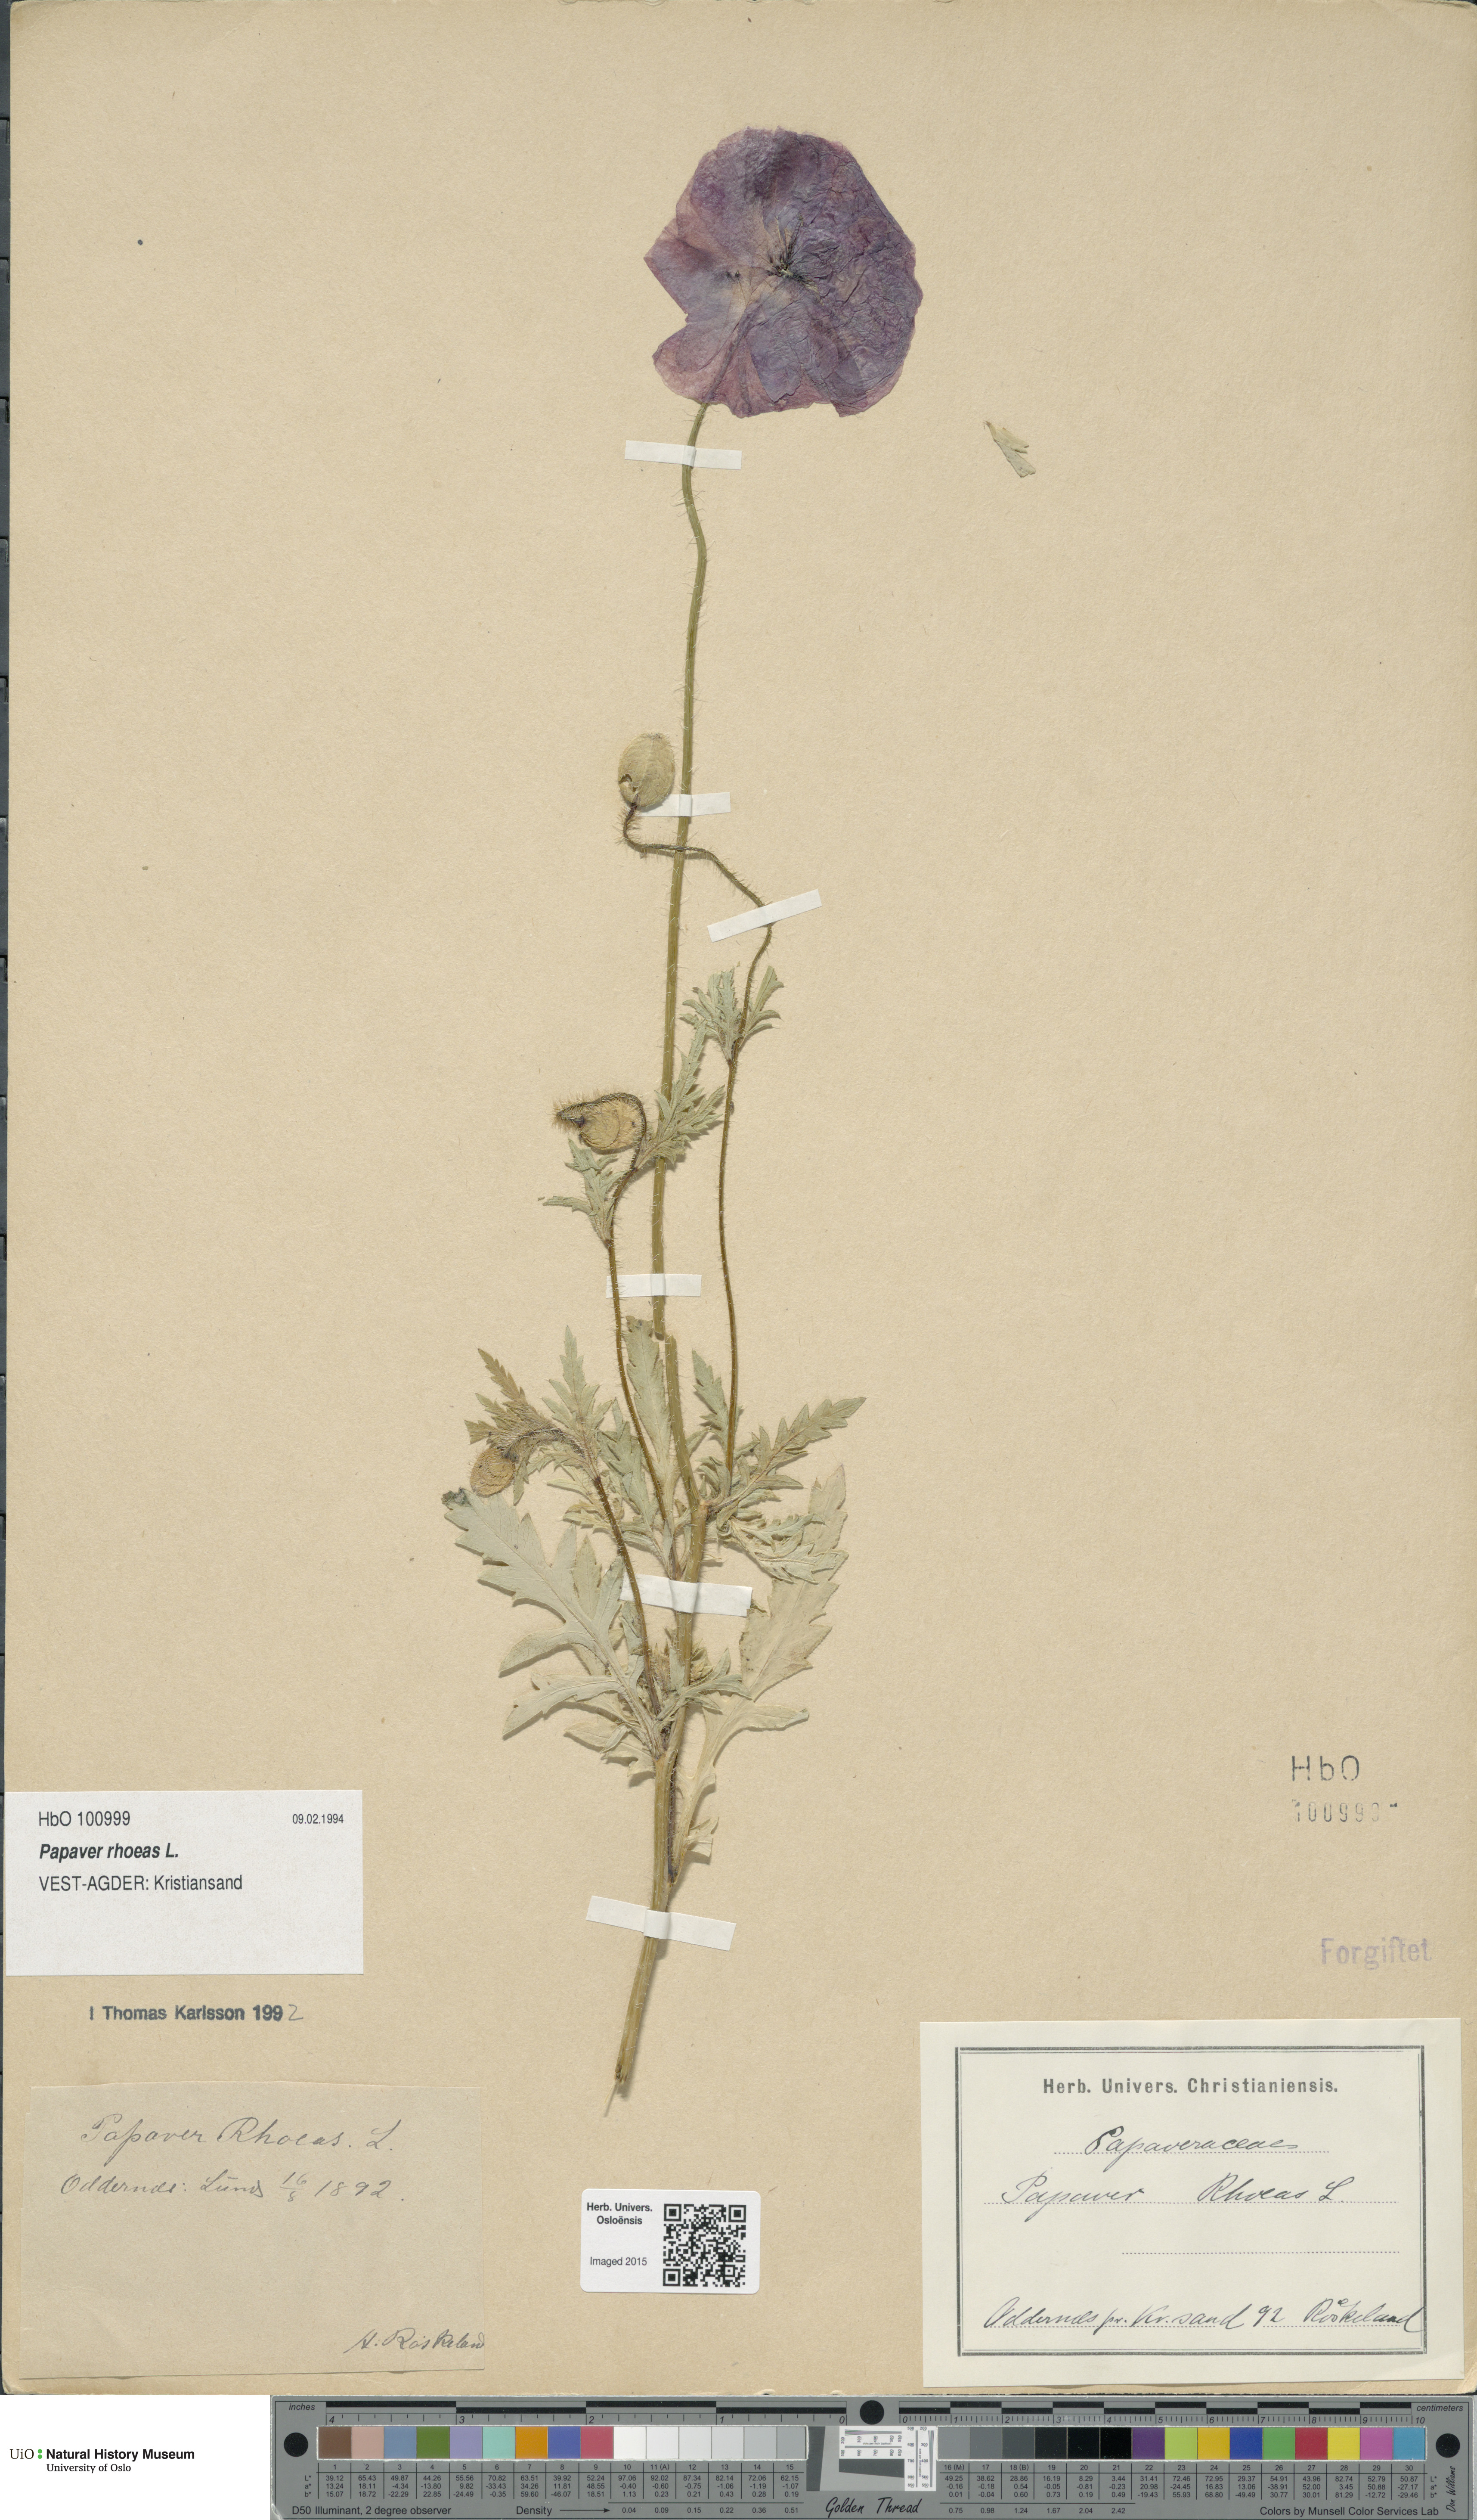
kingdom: Plantae
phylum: Tracheophyta
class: Magnoliopsida
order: Ranunculales
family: Papaveraceae
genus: Papaver
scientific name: Papaver rhoeas
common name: Corn poppy
